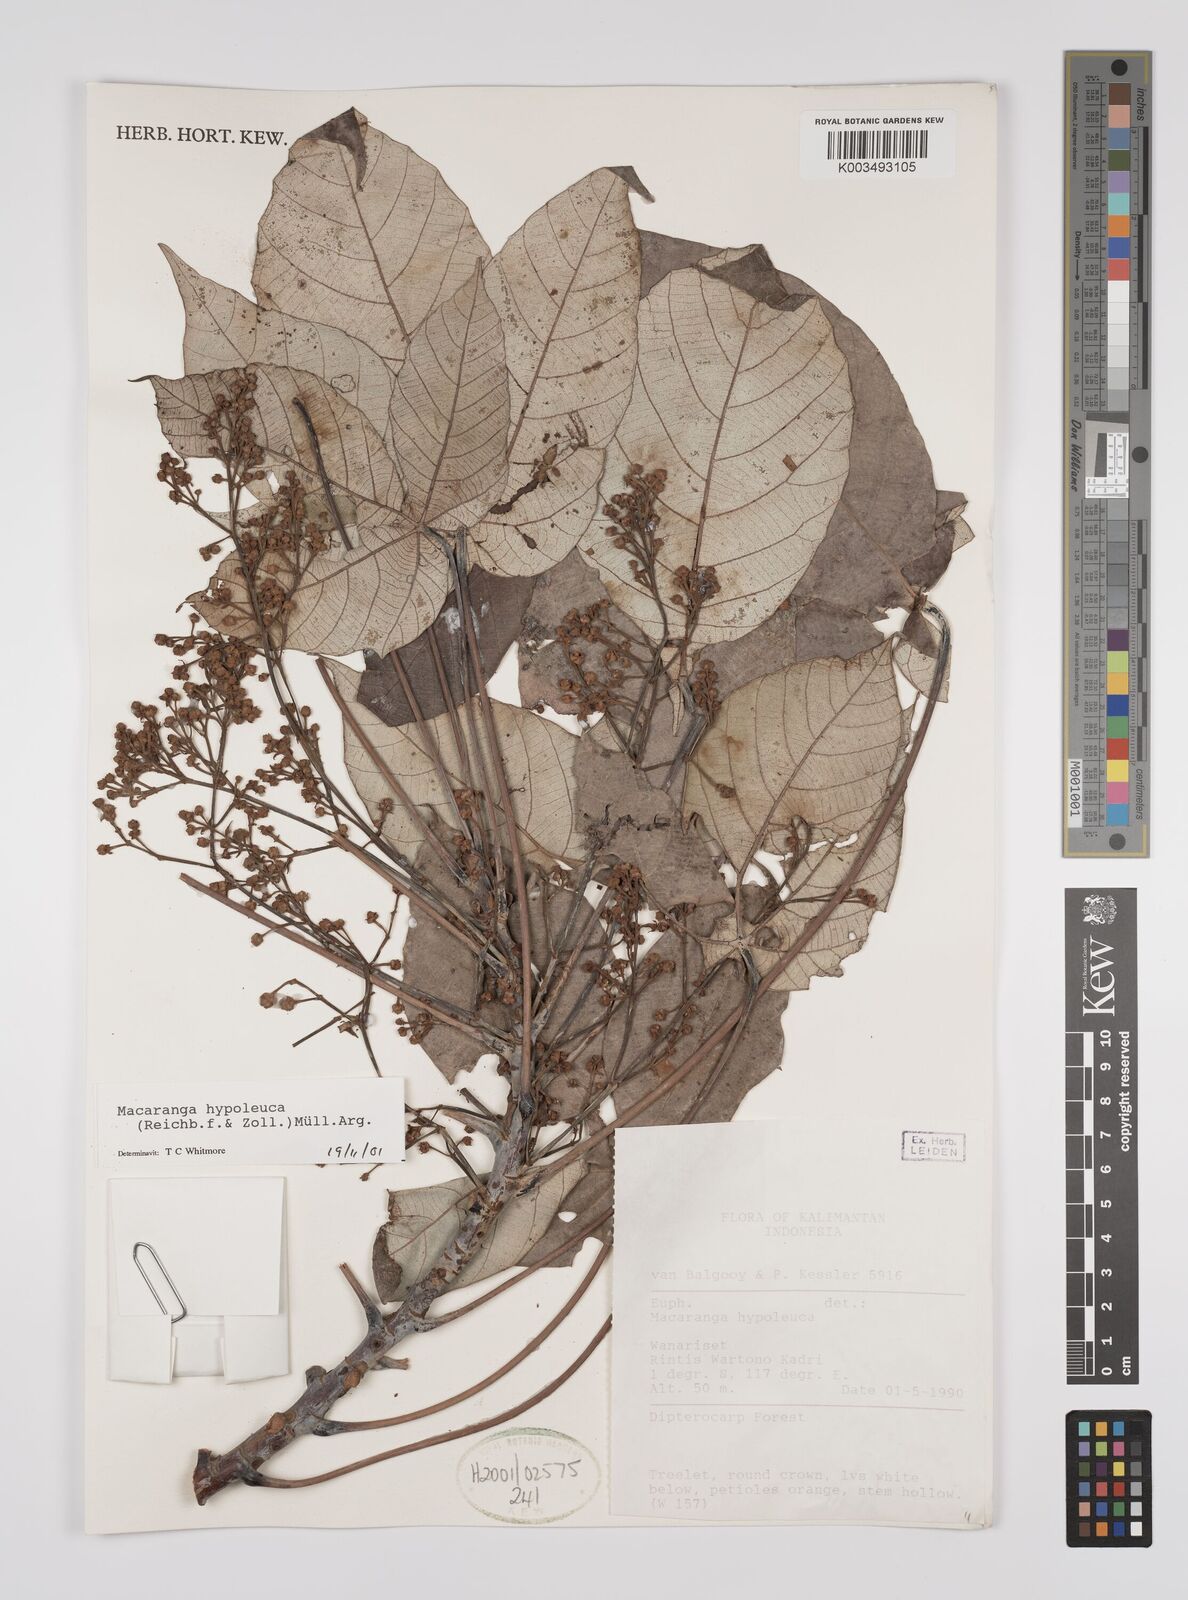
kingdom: Plantae
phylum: Tracheophyta
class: Magnoliopsida
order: Malpighiales
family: Euphorbiaceae
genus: Macaranga
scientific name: Macaranga hypoleuca
